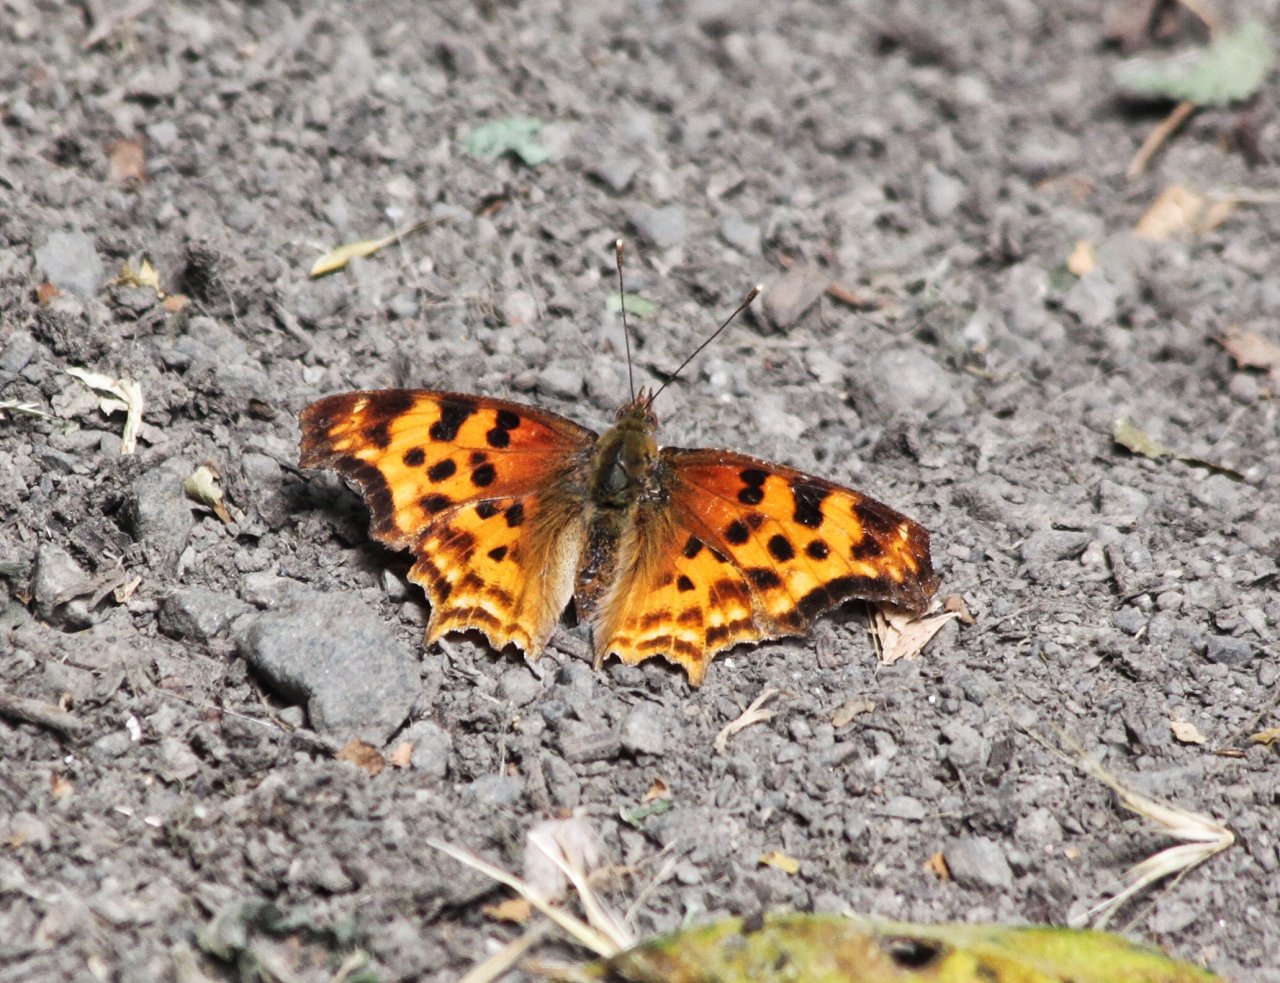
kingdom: Animalia
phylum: Arthropoda
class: Insecta
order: Lepidoptera
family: Nymphalidae
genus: Polygonia
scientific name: Polygonia satyrus
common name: Satyr Comma
